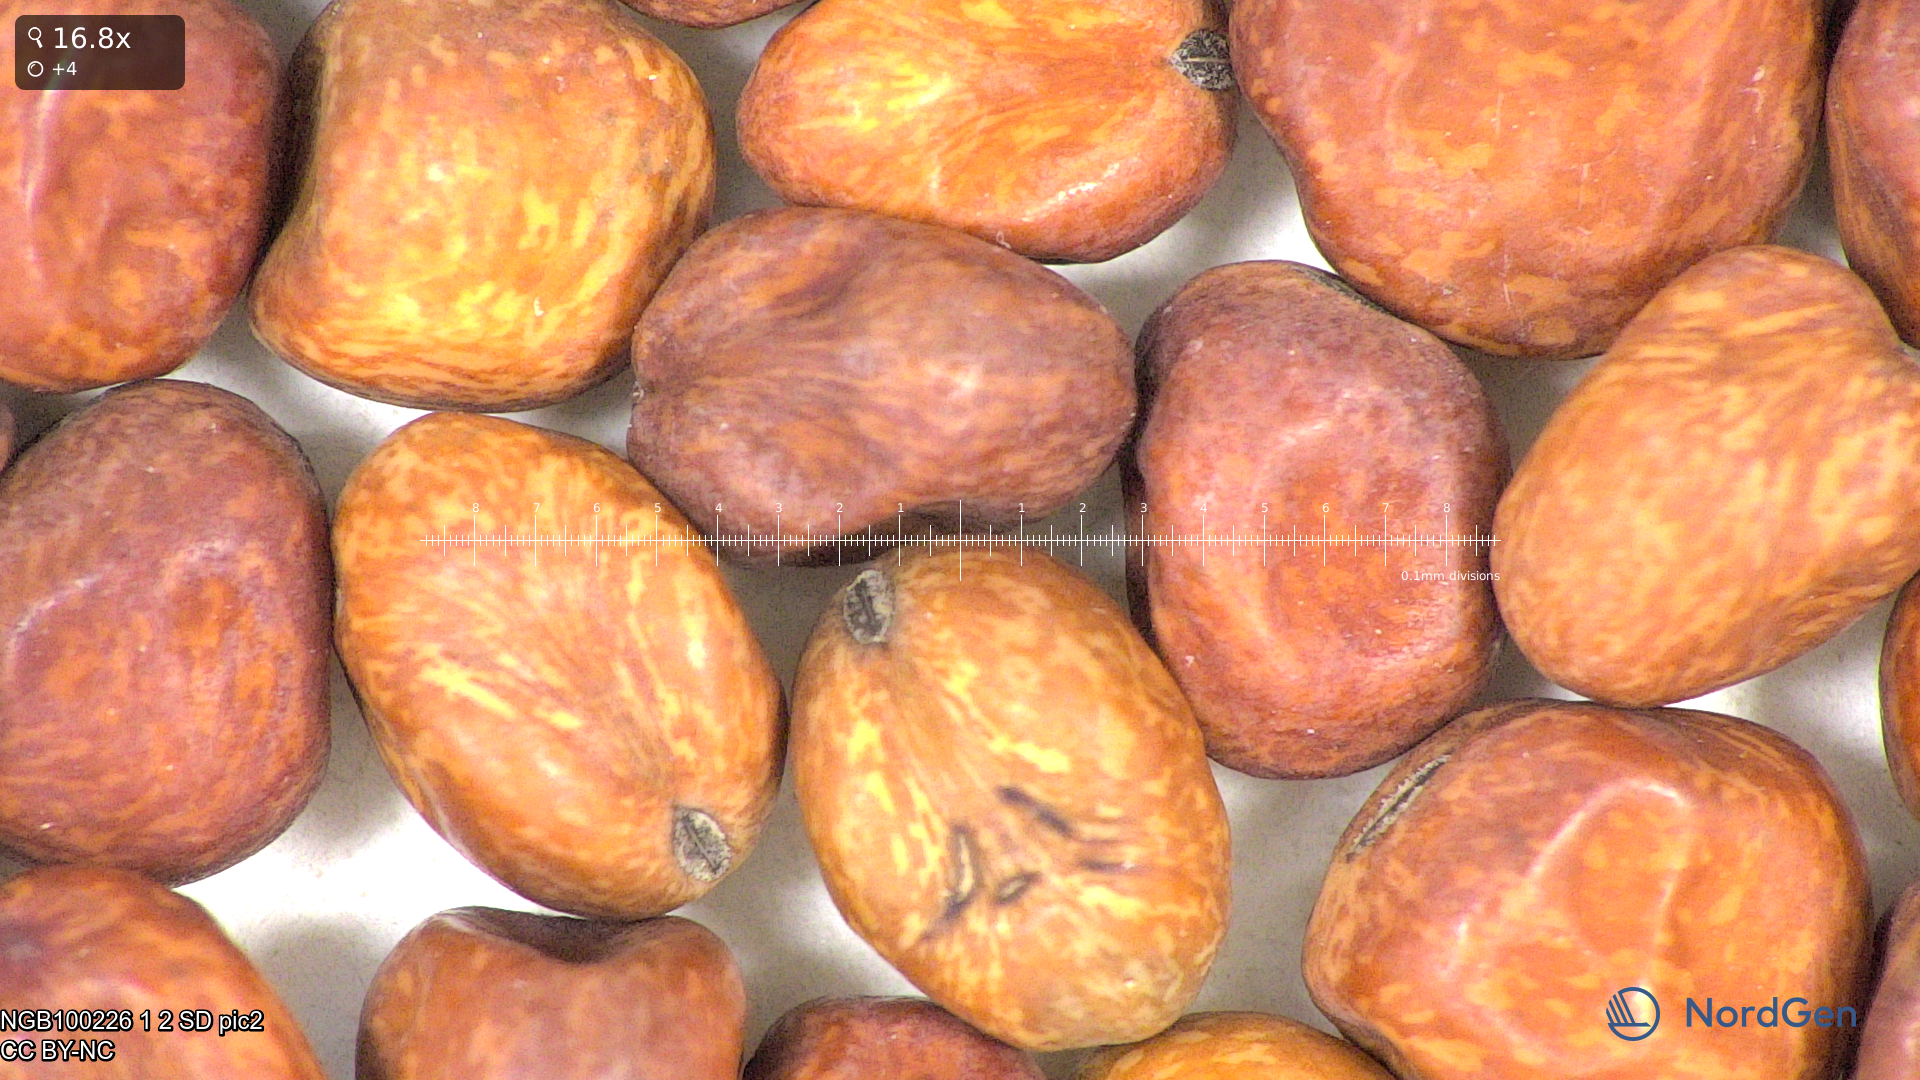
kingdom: Plantae
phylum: Tracheophyta
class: Magnoliopsida
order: Fabales
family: Fabaceae
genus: Lathyrus
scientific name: Lathyrus oleraceus
